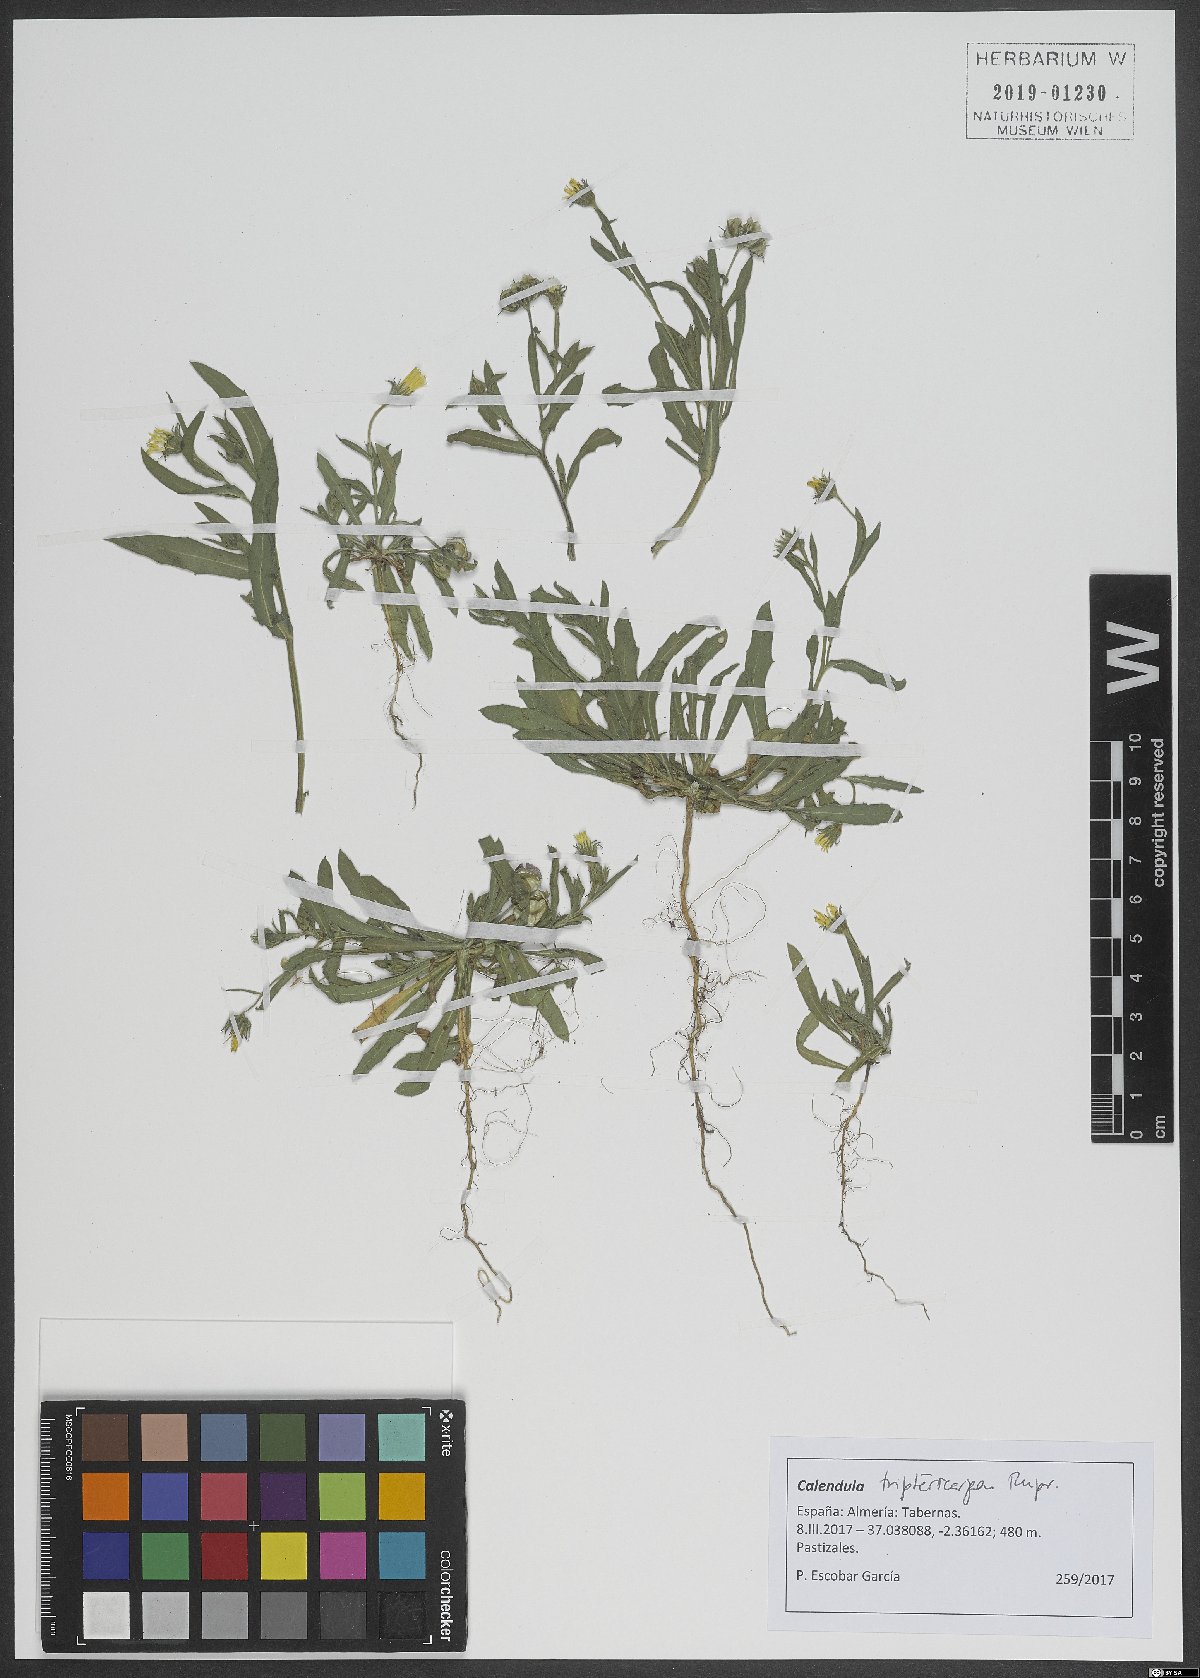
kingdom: Plantae
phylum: Tracheophyta
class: Magnoliopsida
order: Asterales
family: Asteraceae
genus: Calendula
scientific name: Calendula tripterocarpa
